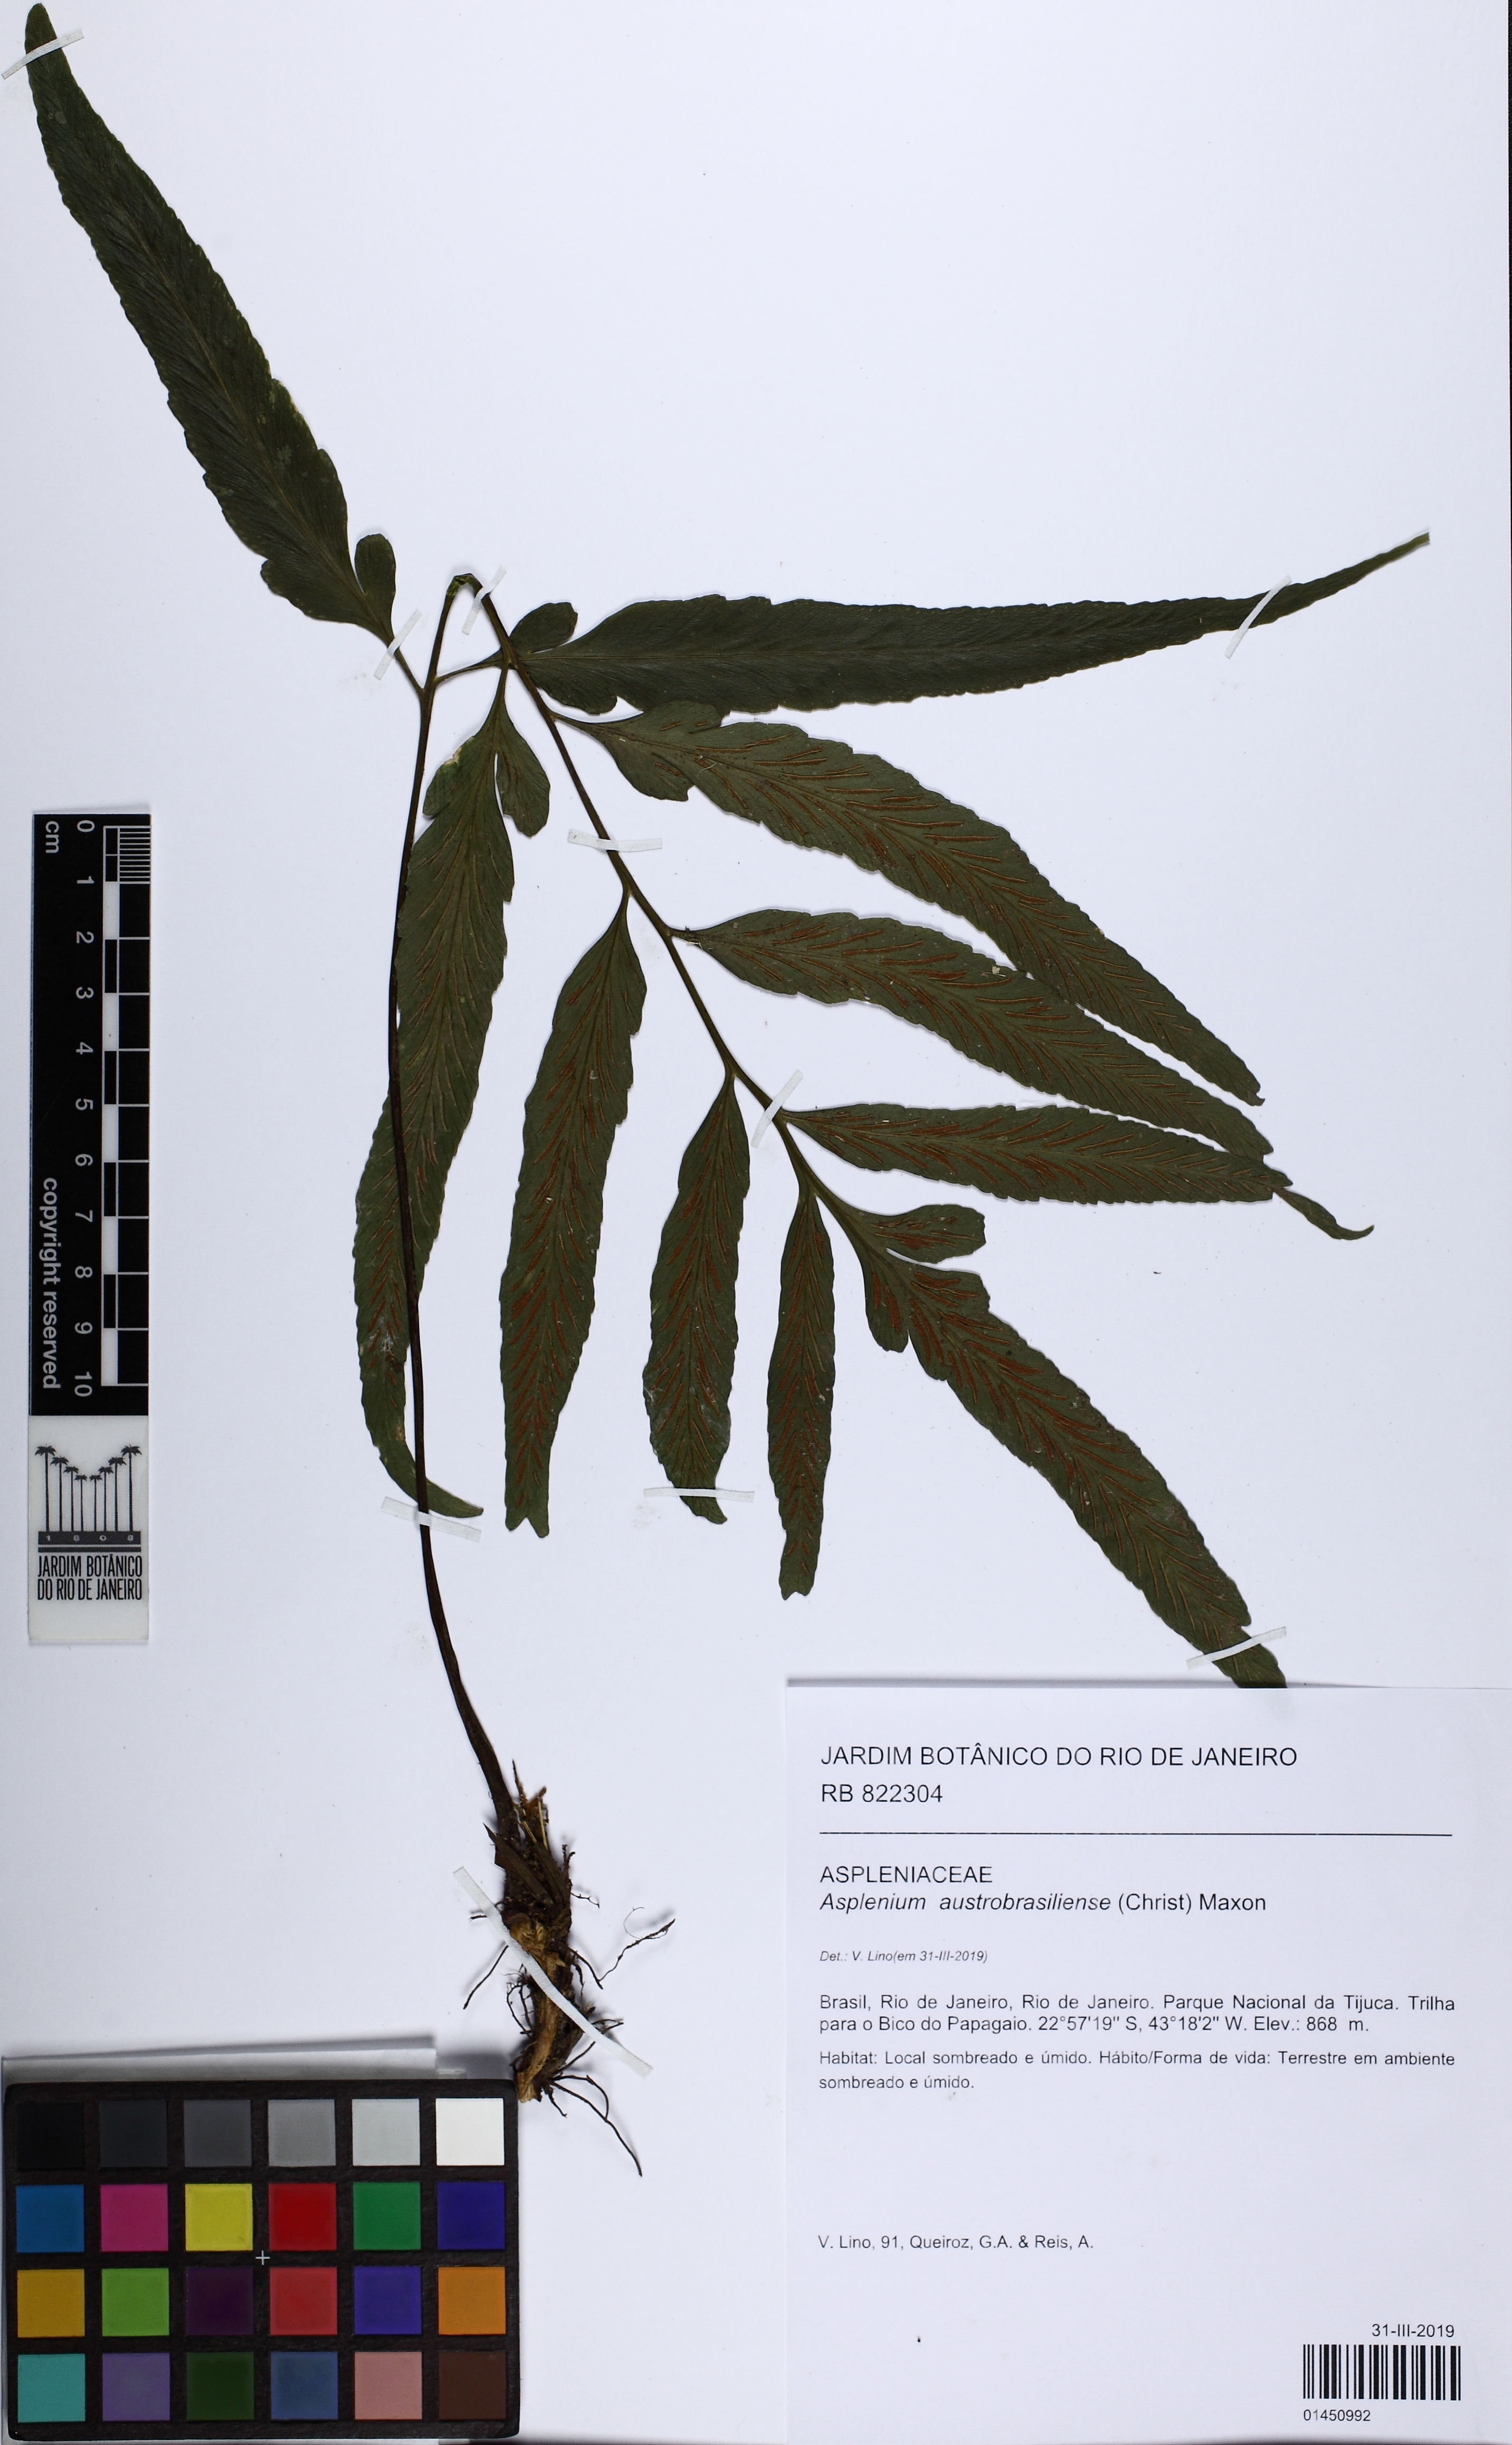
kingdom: Plantae
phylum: Tracheophyta
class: Polypodiopsida
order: Polypodiales
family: Aspleniaceae
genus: Asplenium
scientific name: Asplenium austrobrasiliense
